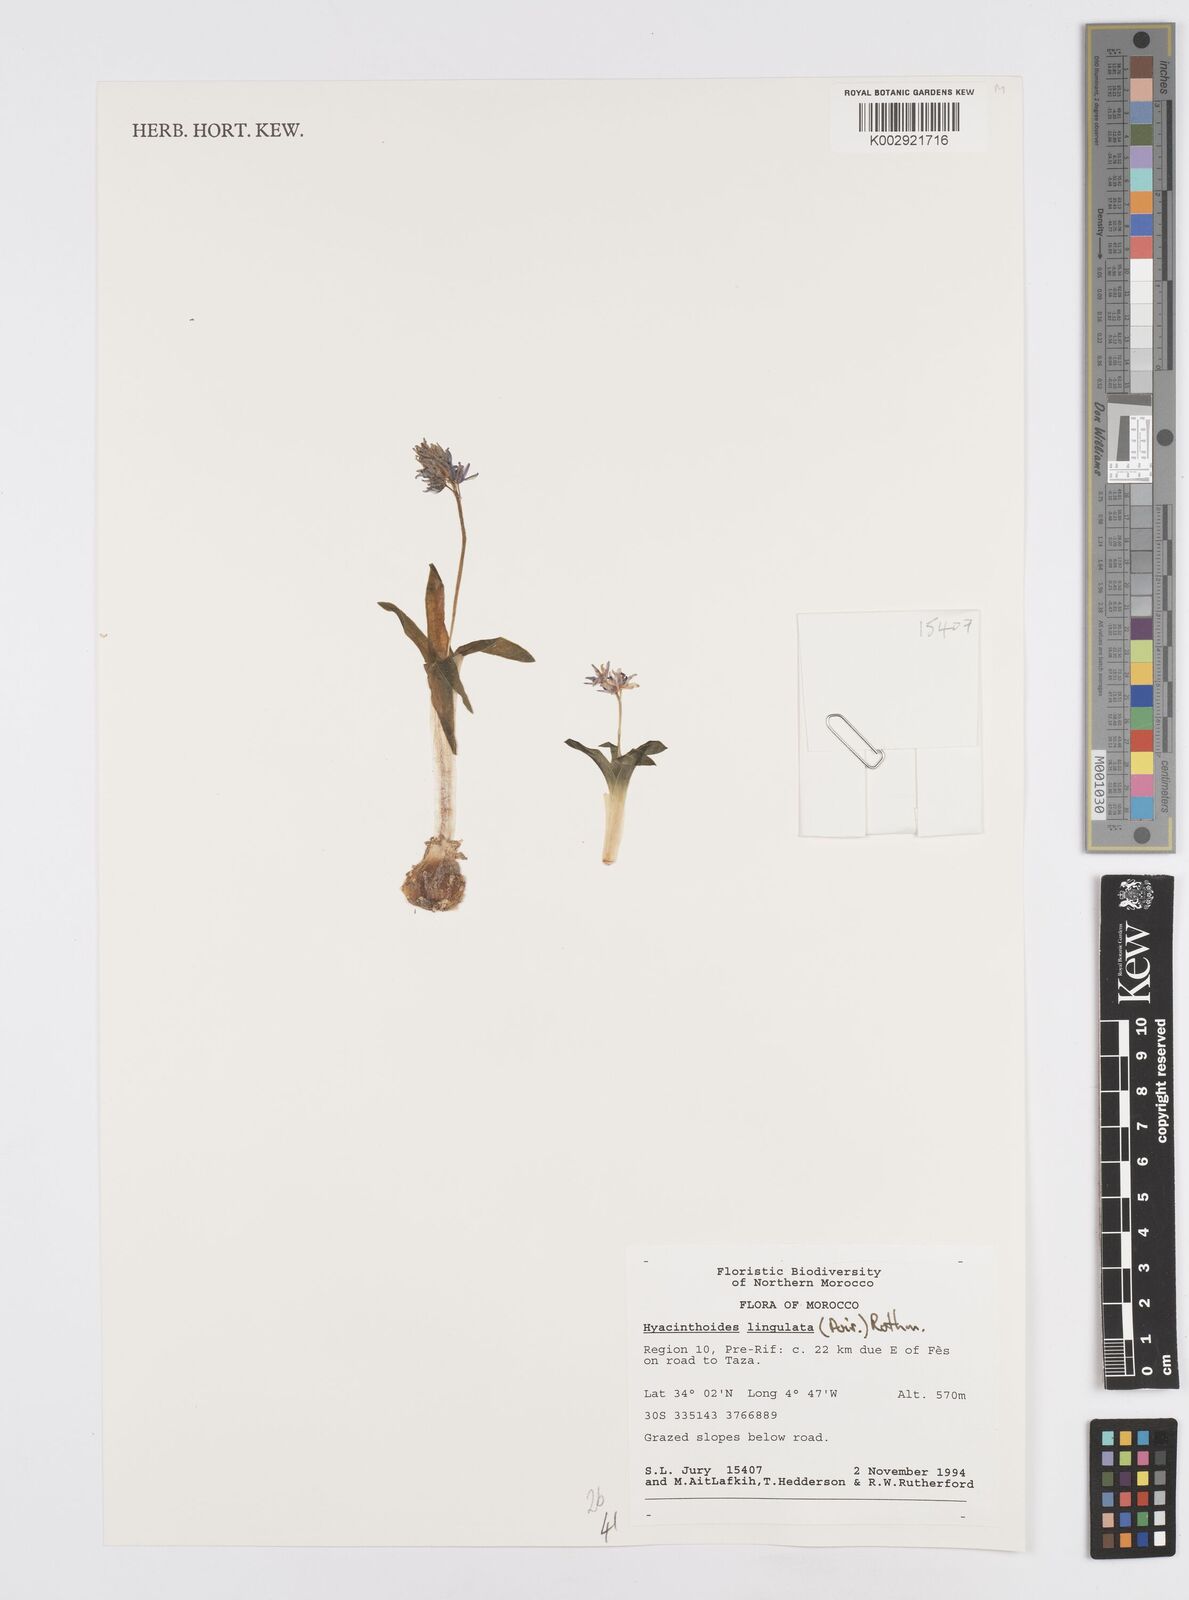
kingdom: Plantae
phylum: Tracheophyta
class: Liliopsida
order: Asparagales
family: Asparagaceae
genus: Hyacinthoides
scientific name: Hyacinthoides lingulata
